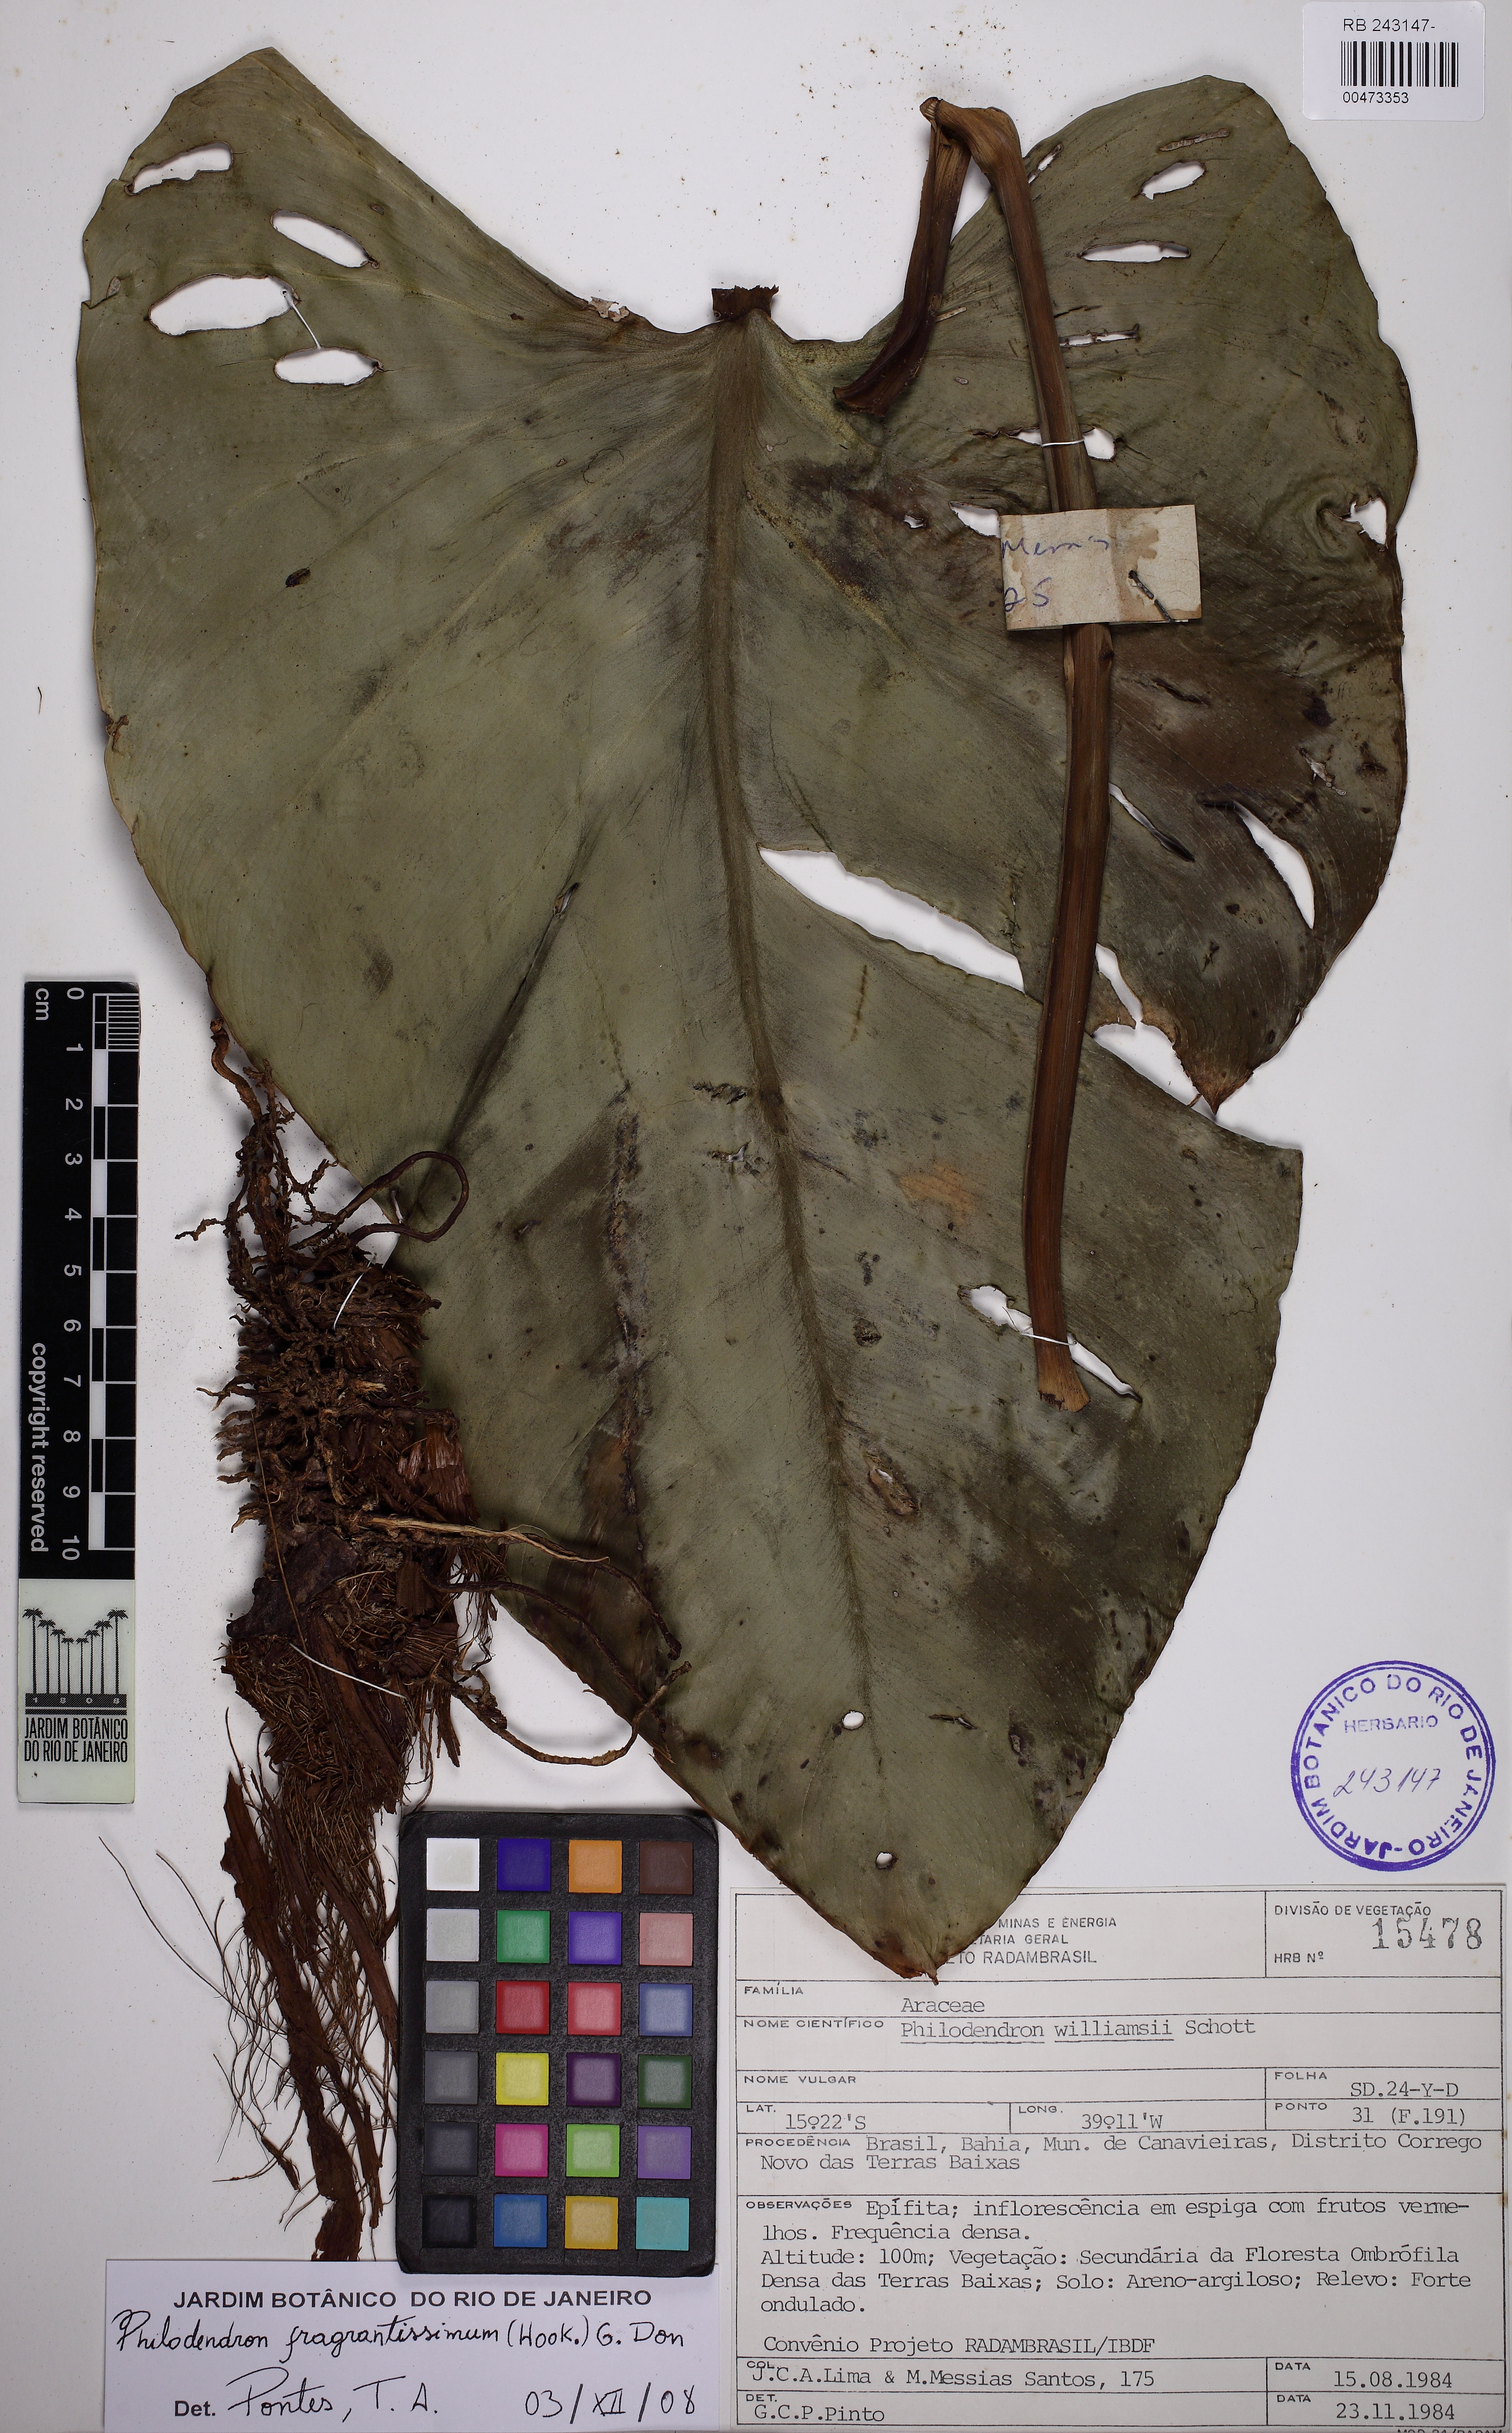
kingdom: Plantae
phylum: Tracheophyta
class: Liliopsida
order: Alismatales
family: Araceae
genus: Philodendron
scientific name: Philodendron fragrantissimum
